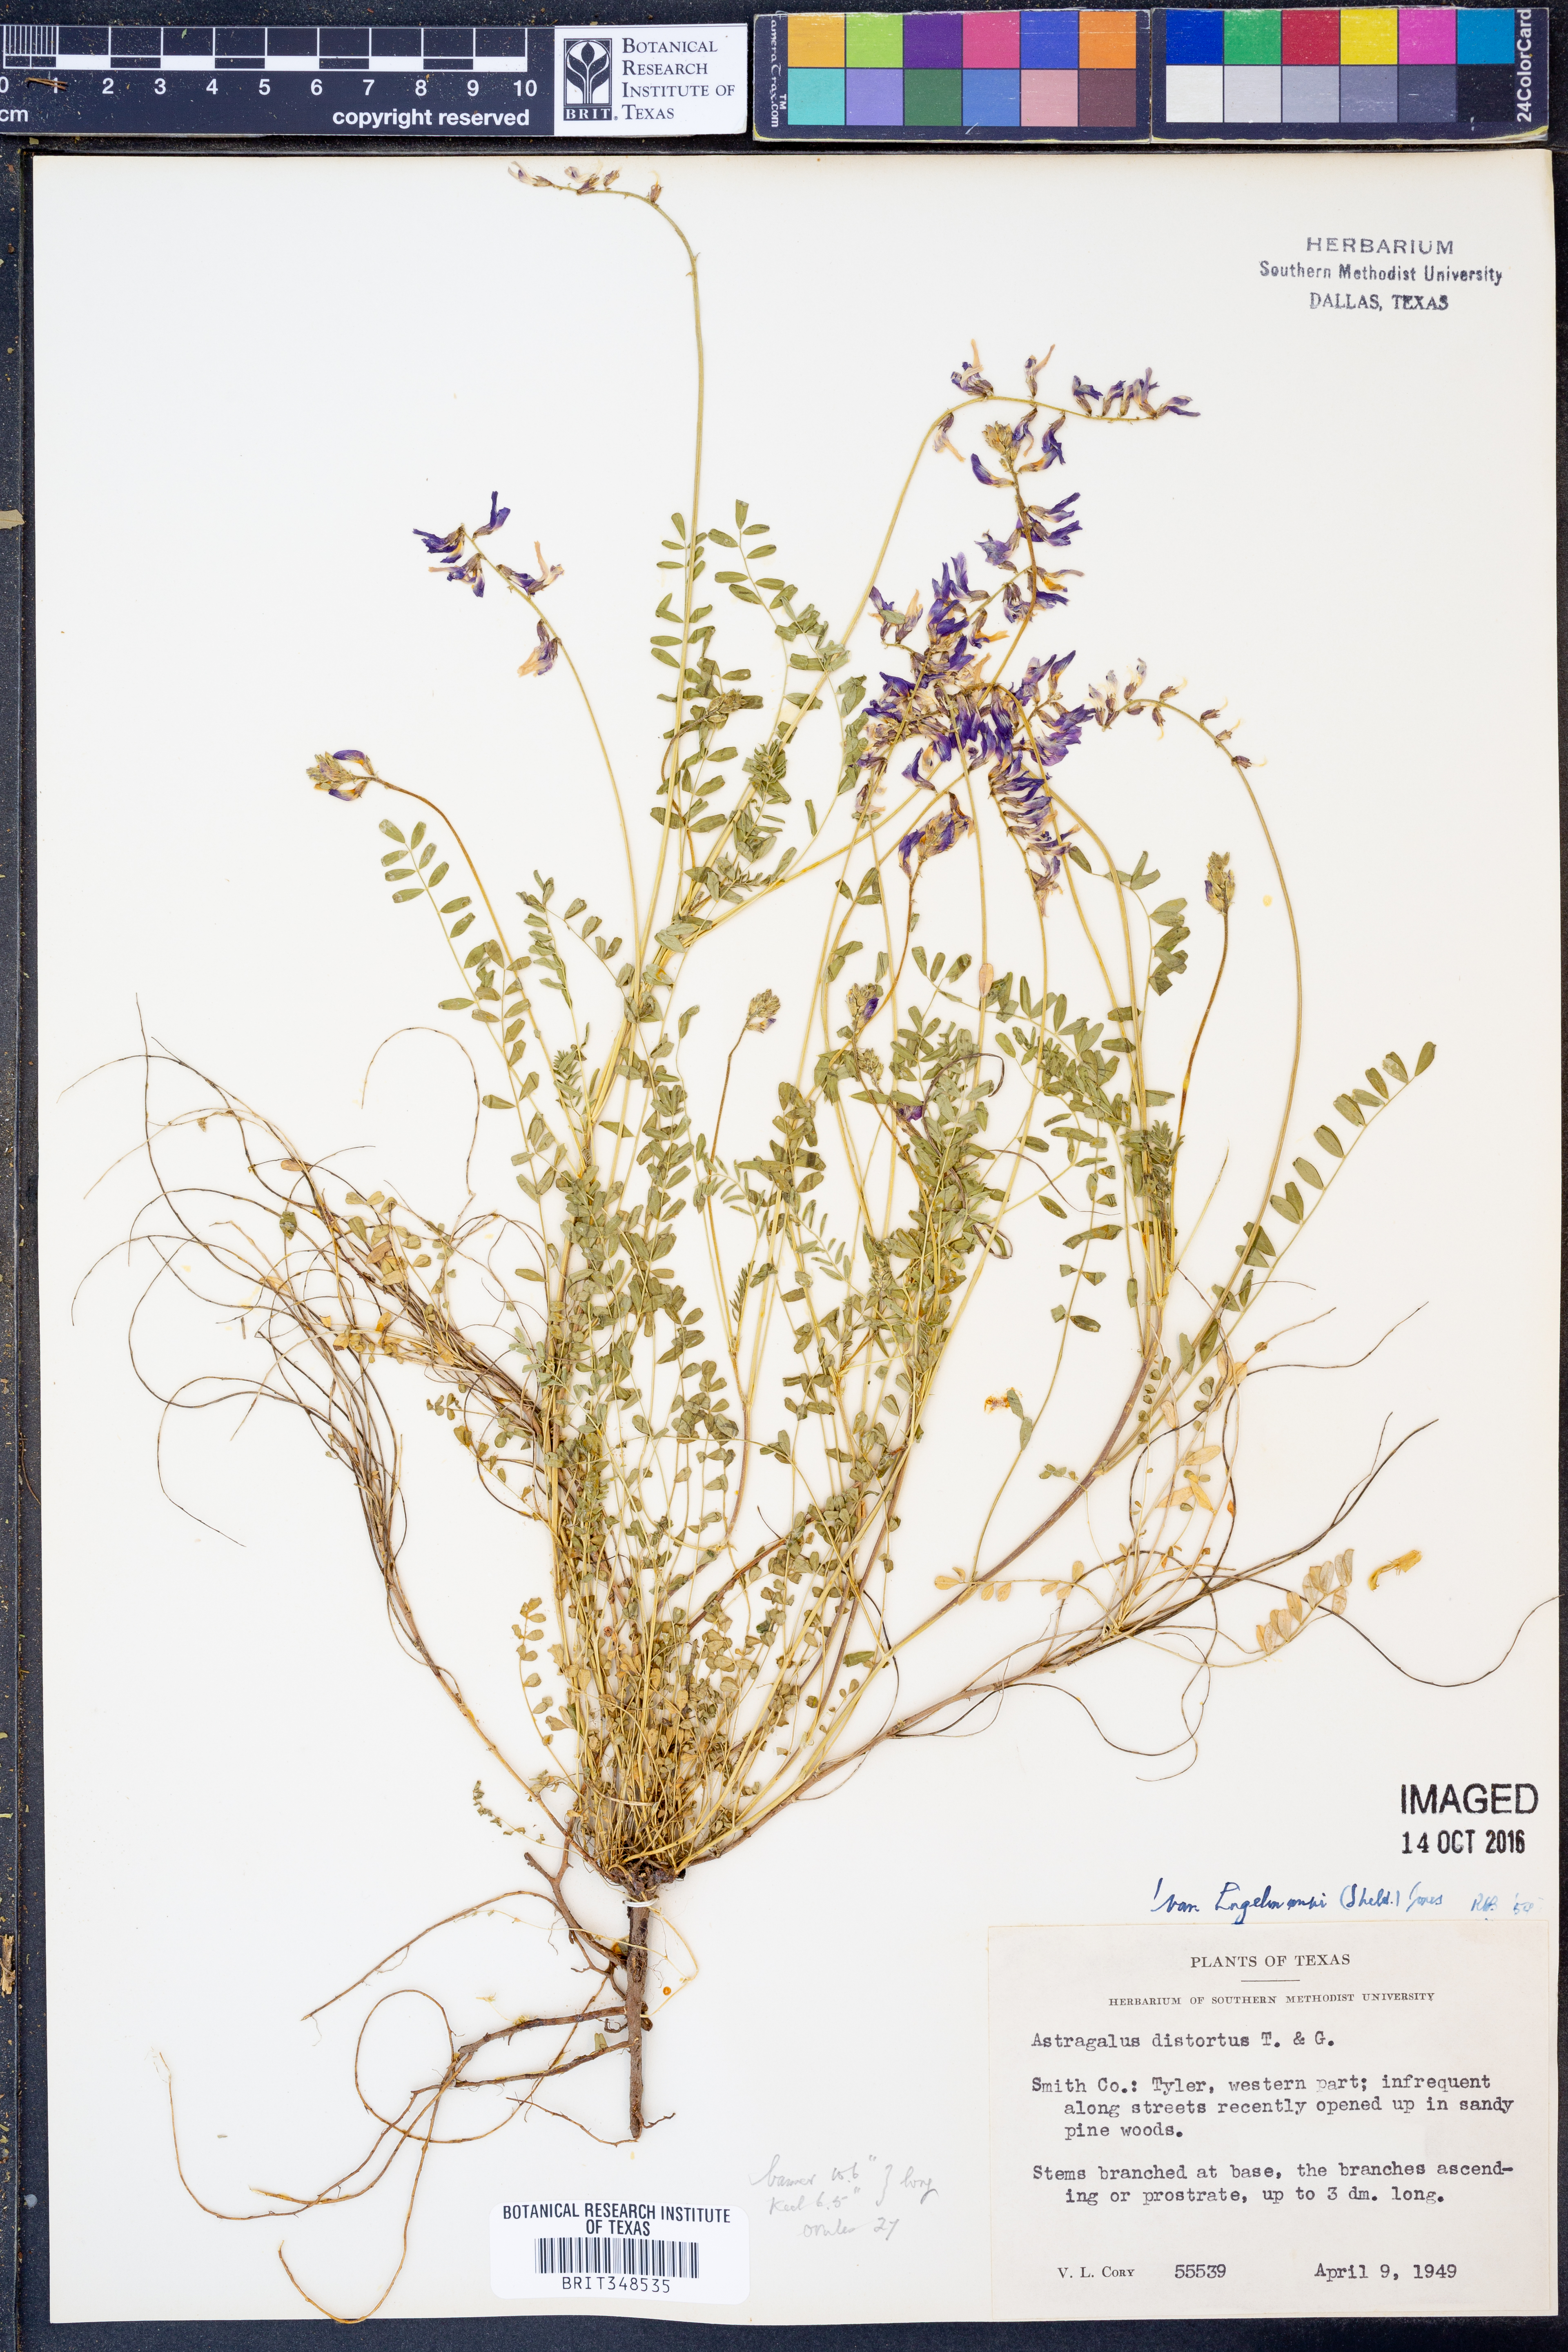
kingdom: Plantae
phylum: Tracheophyta
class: Magnoliopsida
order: Fabales
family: Fabaceae
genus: Astragalus
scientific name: Astragalus distortus
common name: Ozark milk-vetch
